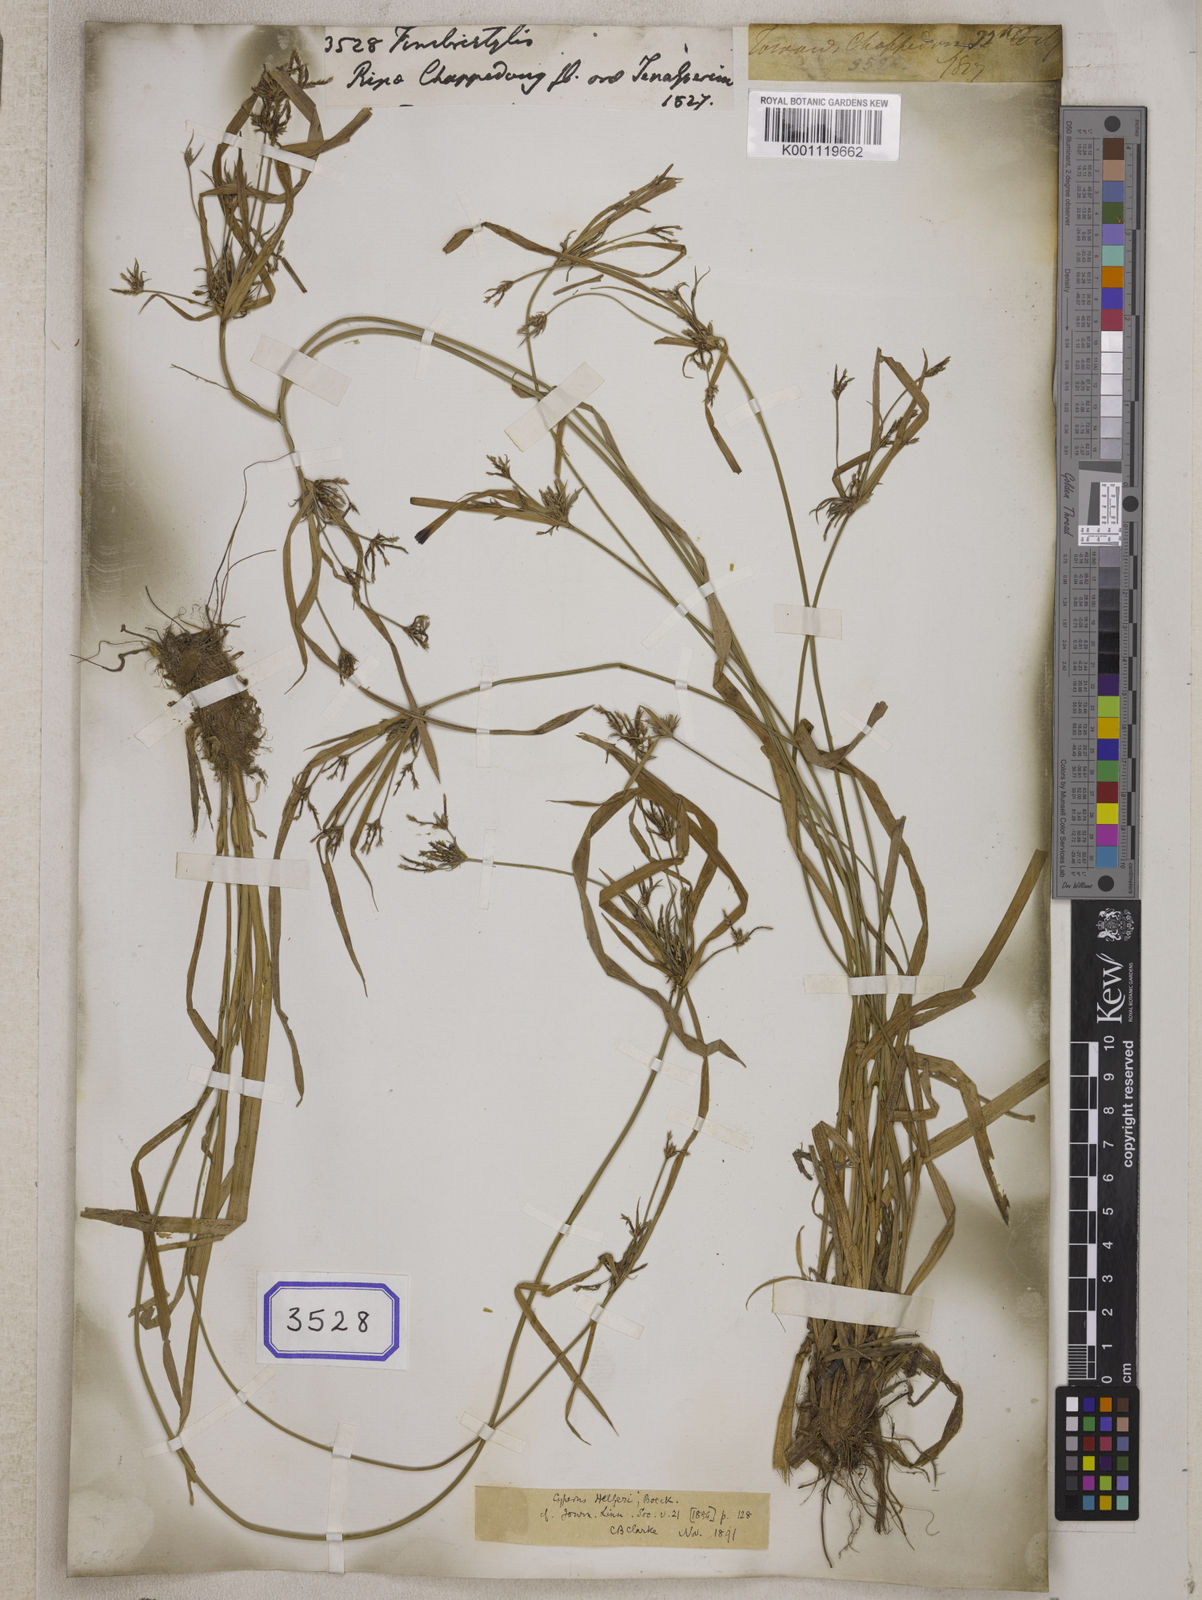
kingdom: Plantae
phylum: Tracheophyta
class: Liliopsida
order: Poales
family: Cyperaceae
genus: Fimbristylis
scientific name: Fimbristylis
